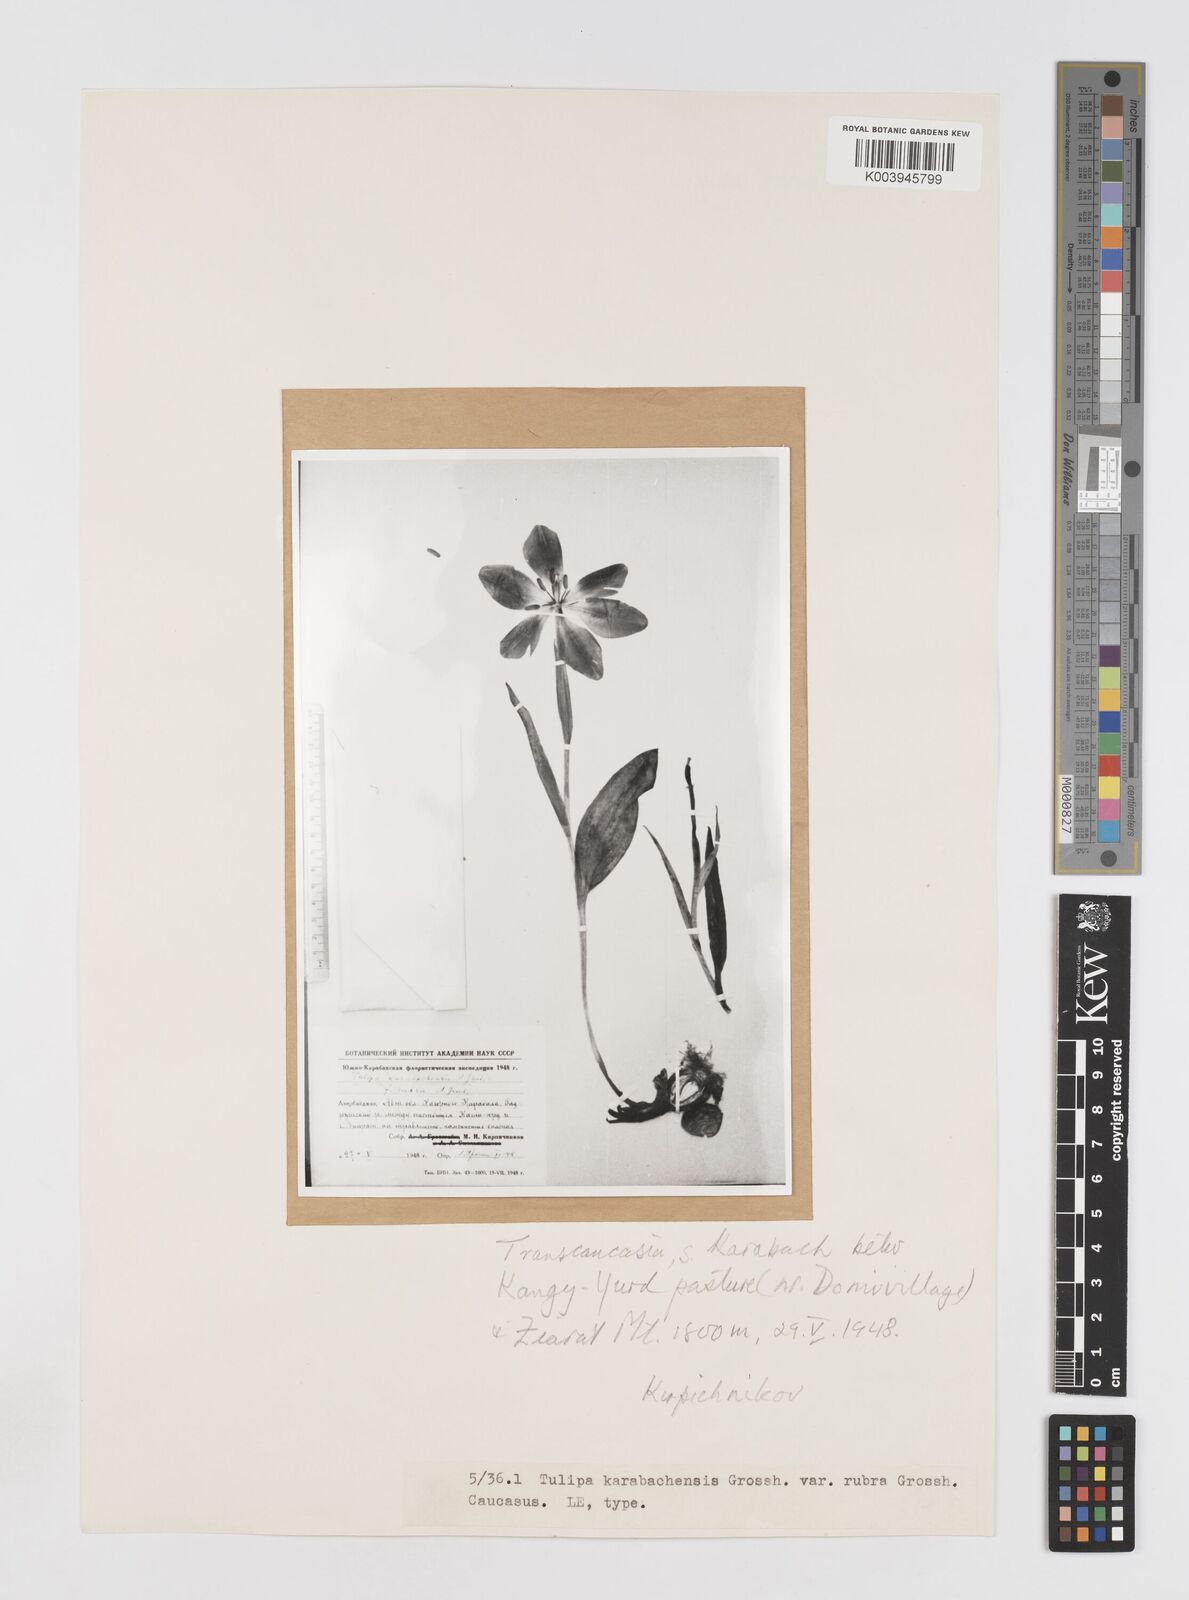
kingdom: Plantae
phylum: Tracheophyta
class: Liliopsida
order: Liliales
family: Liliaceae
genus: Tulipa
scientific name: Tulipa armena
